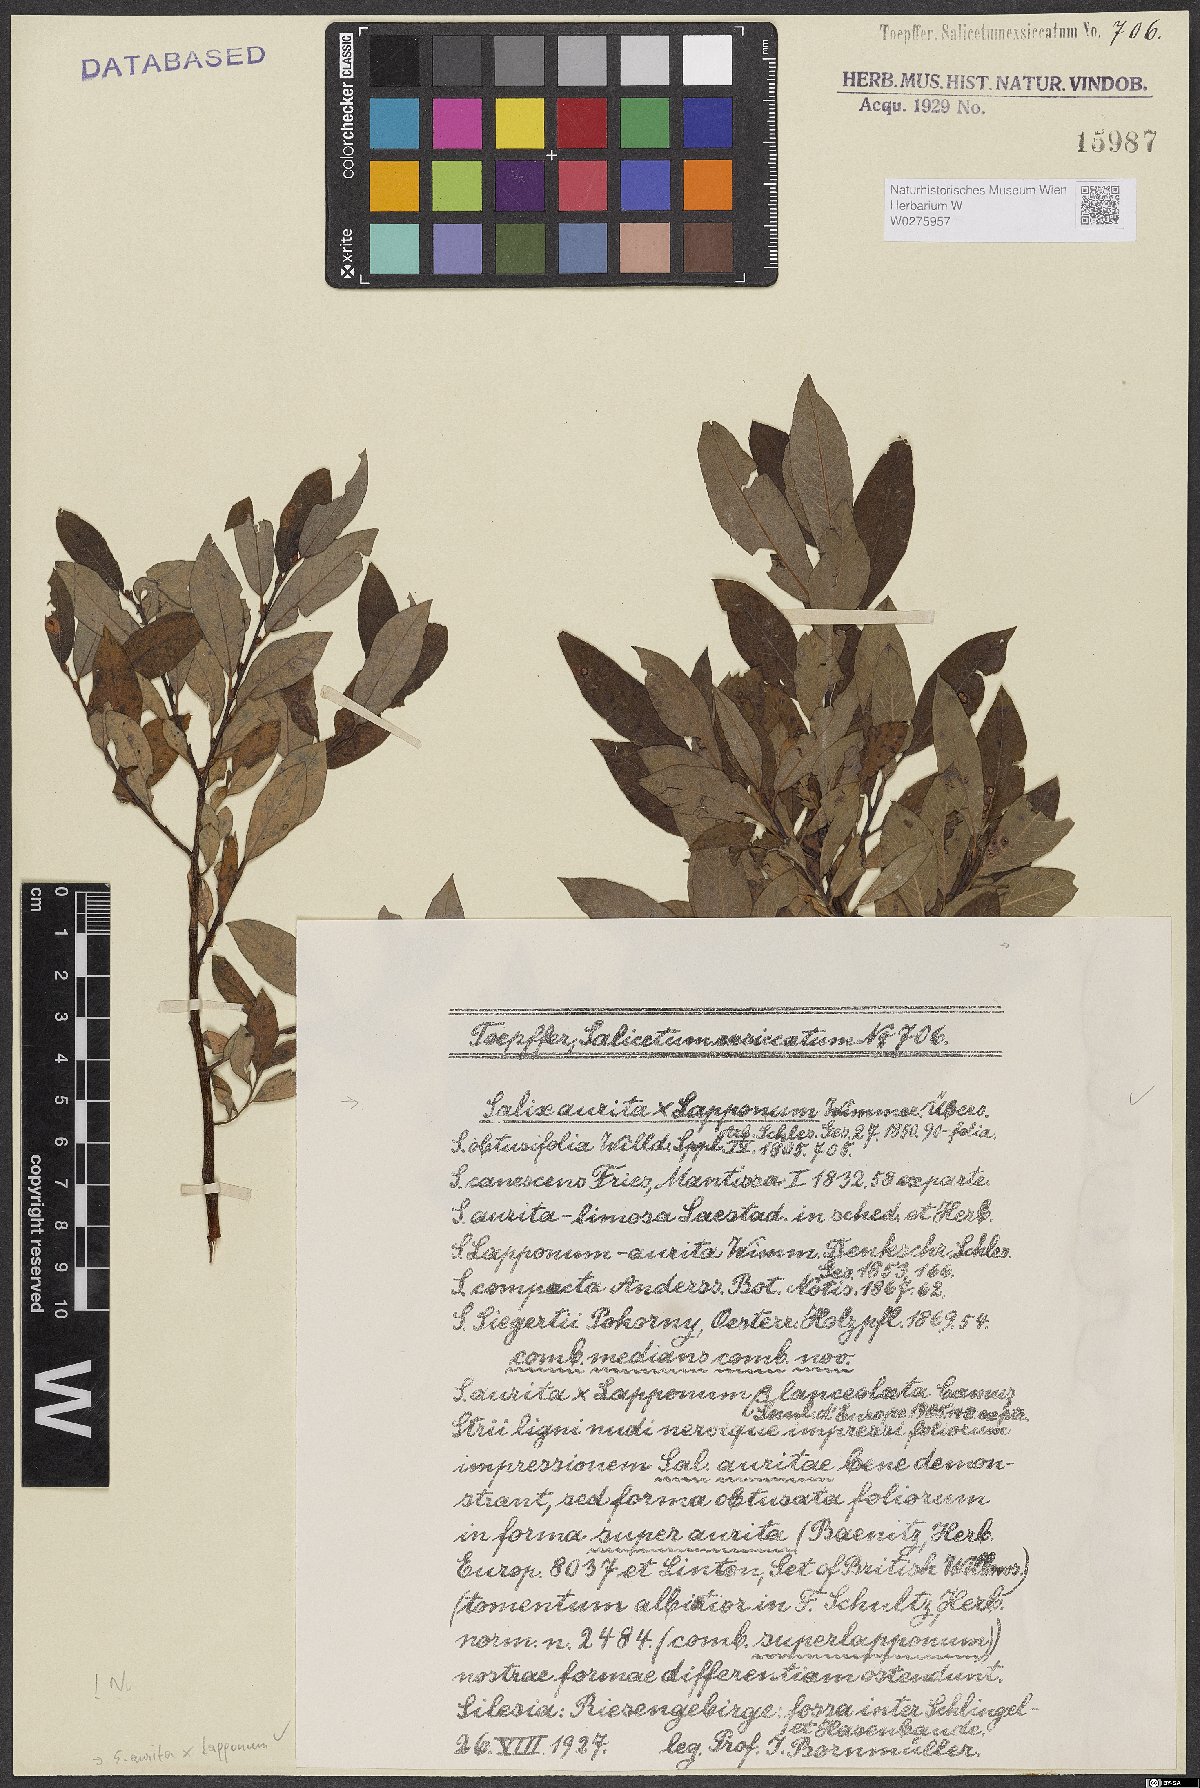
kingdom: Plantae
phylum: Tracheophyta
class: Magnoliopsida
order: Malpighiales
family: Salicaceae
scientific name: Salicaceae
